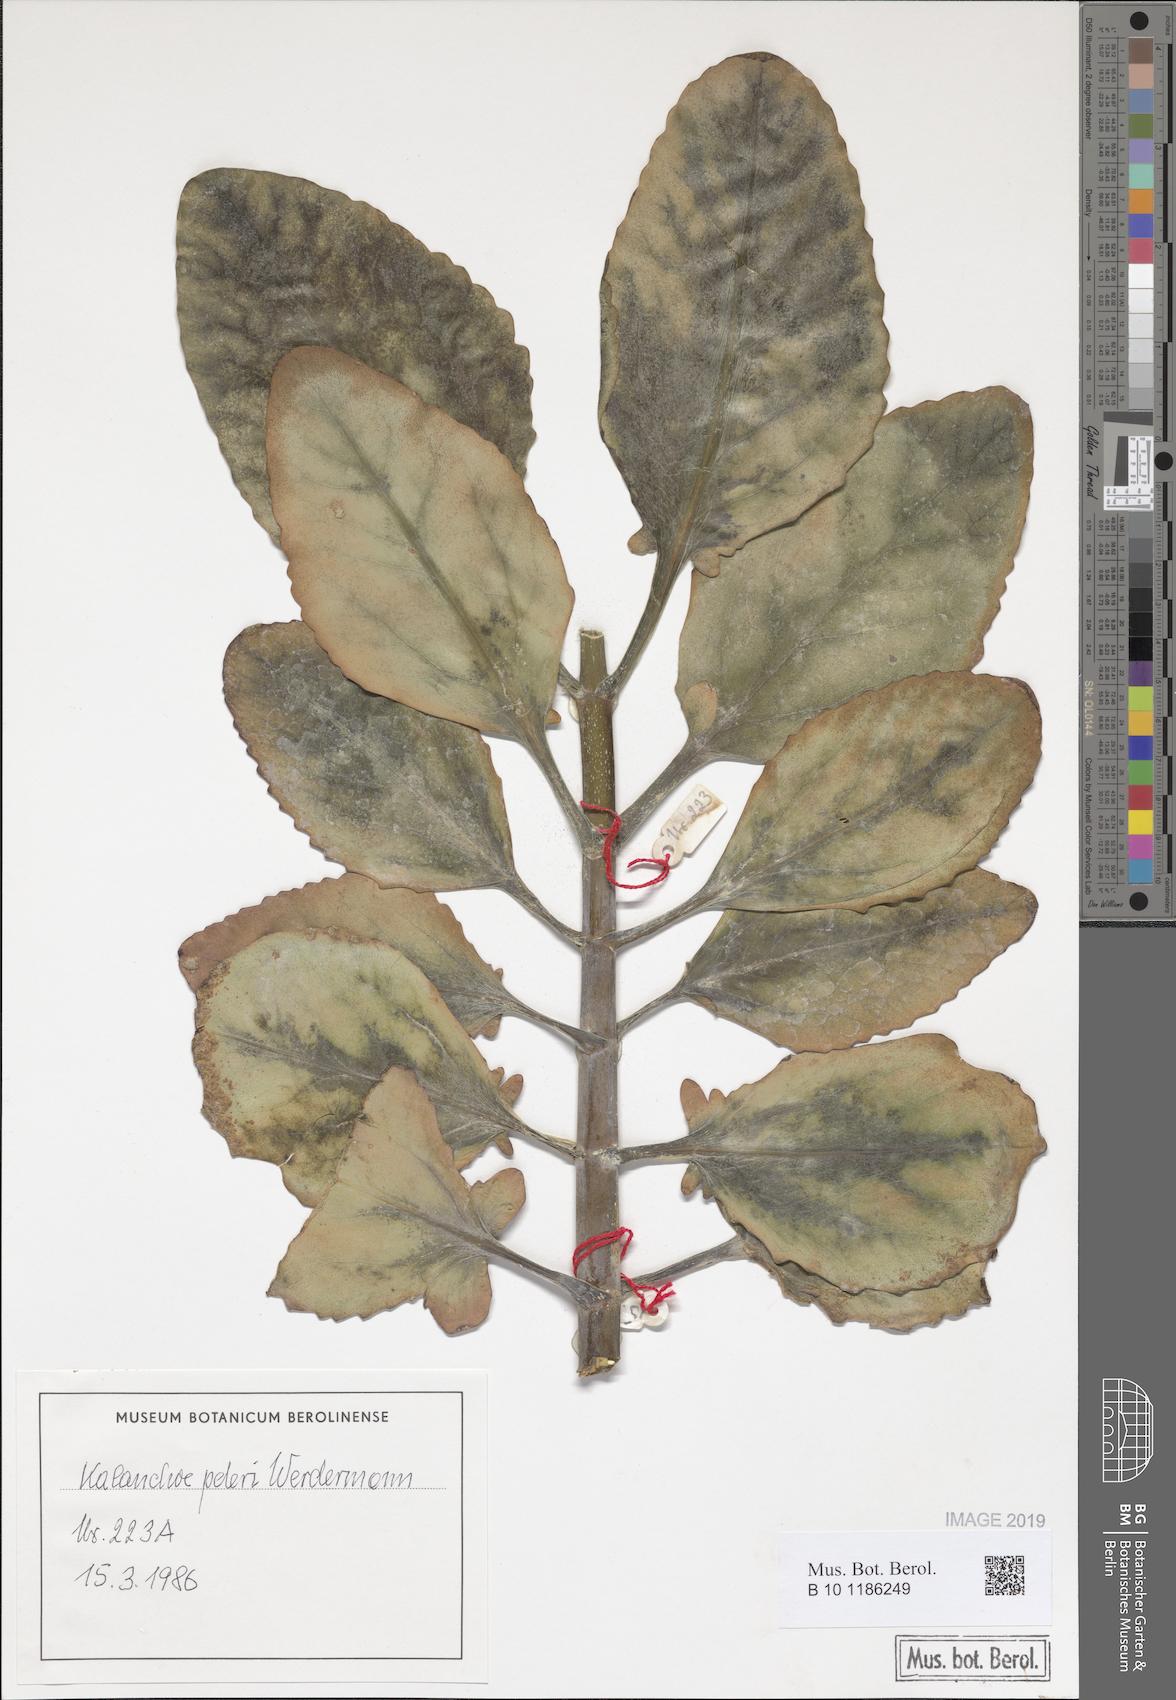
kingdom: Plantae
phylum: Tracheophyta
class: Magnoliopsida
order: Saxifragales
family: Crassulaceae
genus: Kalanchoe
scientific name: Kalanchoe peteri
